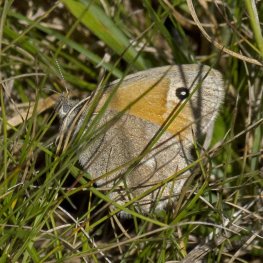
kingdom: Animalia
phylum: Arthropoda
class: Insecta
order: Lepidoptera
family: Nymphalidae
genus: Coenonympha
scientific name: Coenonympha tullia
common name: Large Heath
